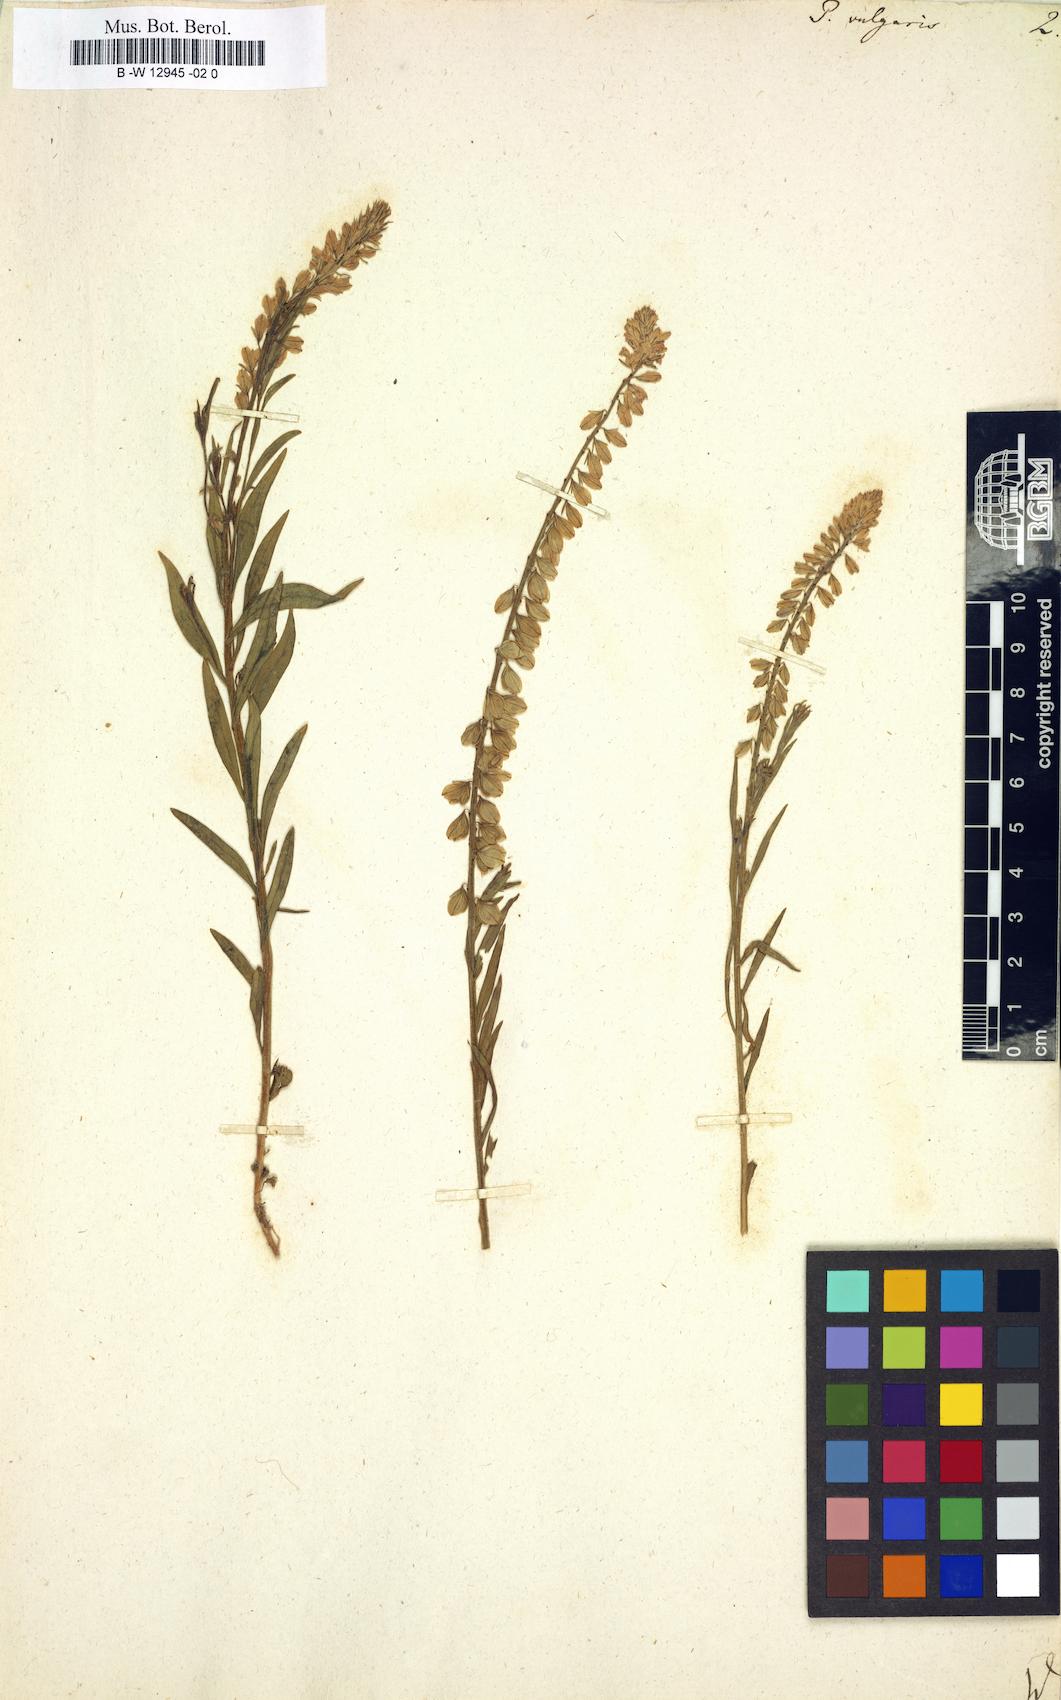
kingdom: Plantae
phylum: Tracheophyta
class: Magnoliopsida
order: Fabales
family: Polygalaceae
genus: Polygala
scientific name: Polygala vulgaris
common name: Common milkwort
